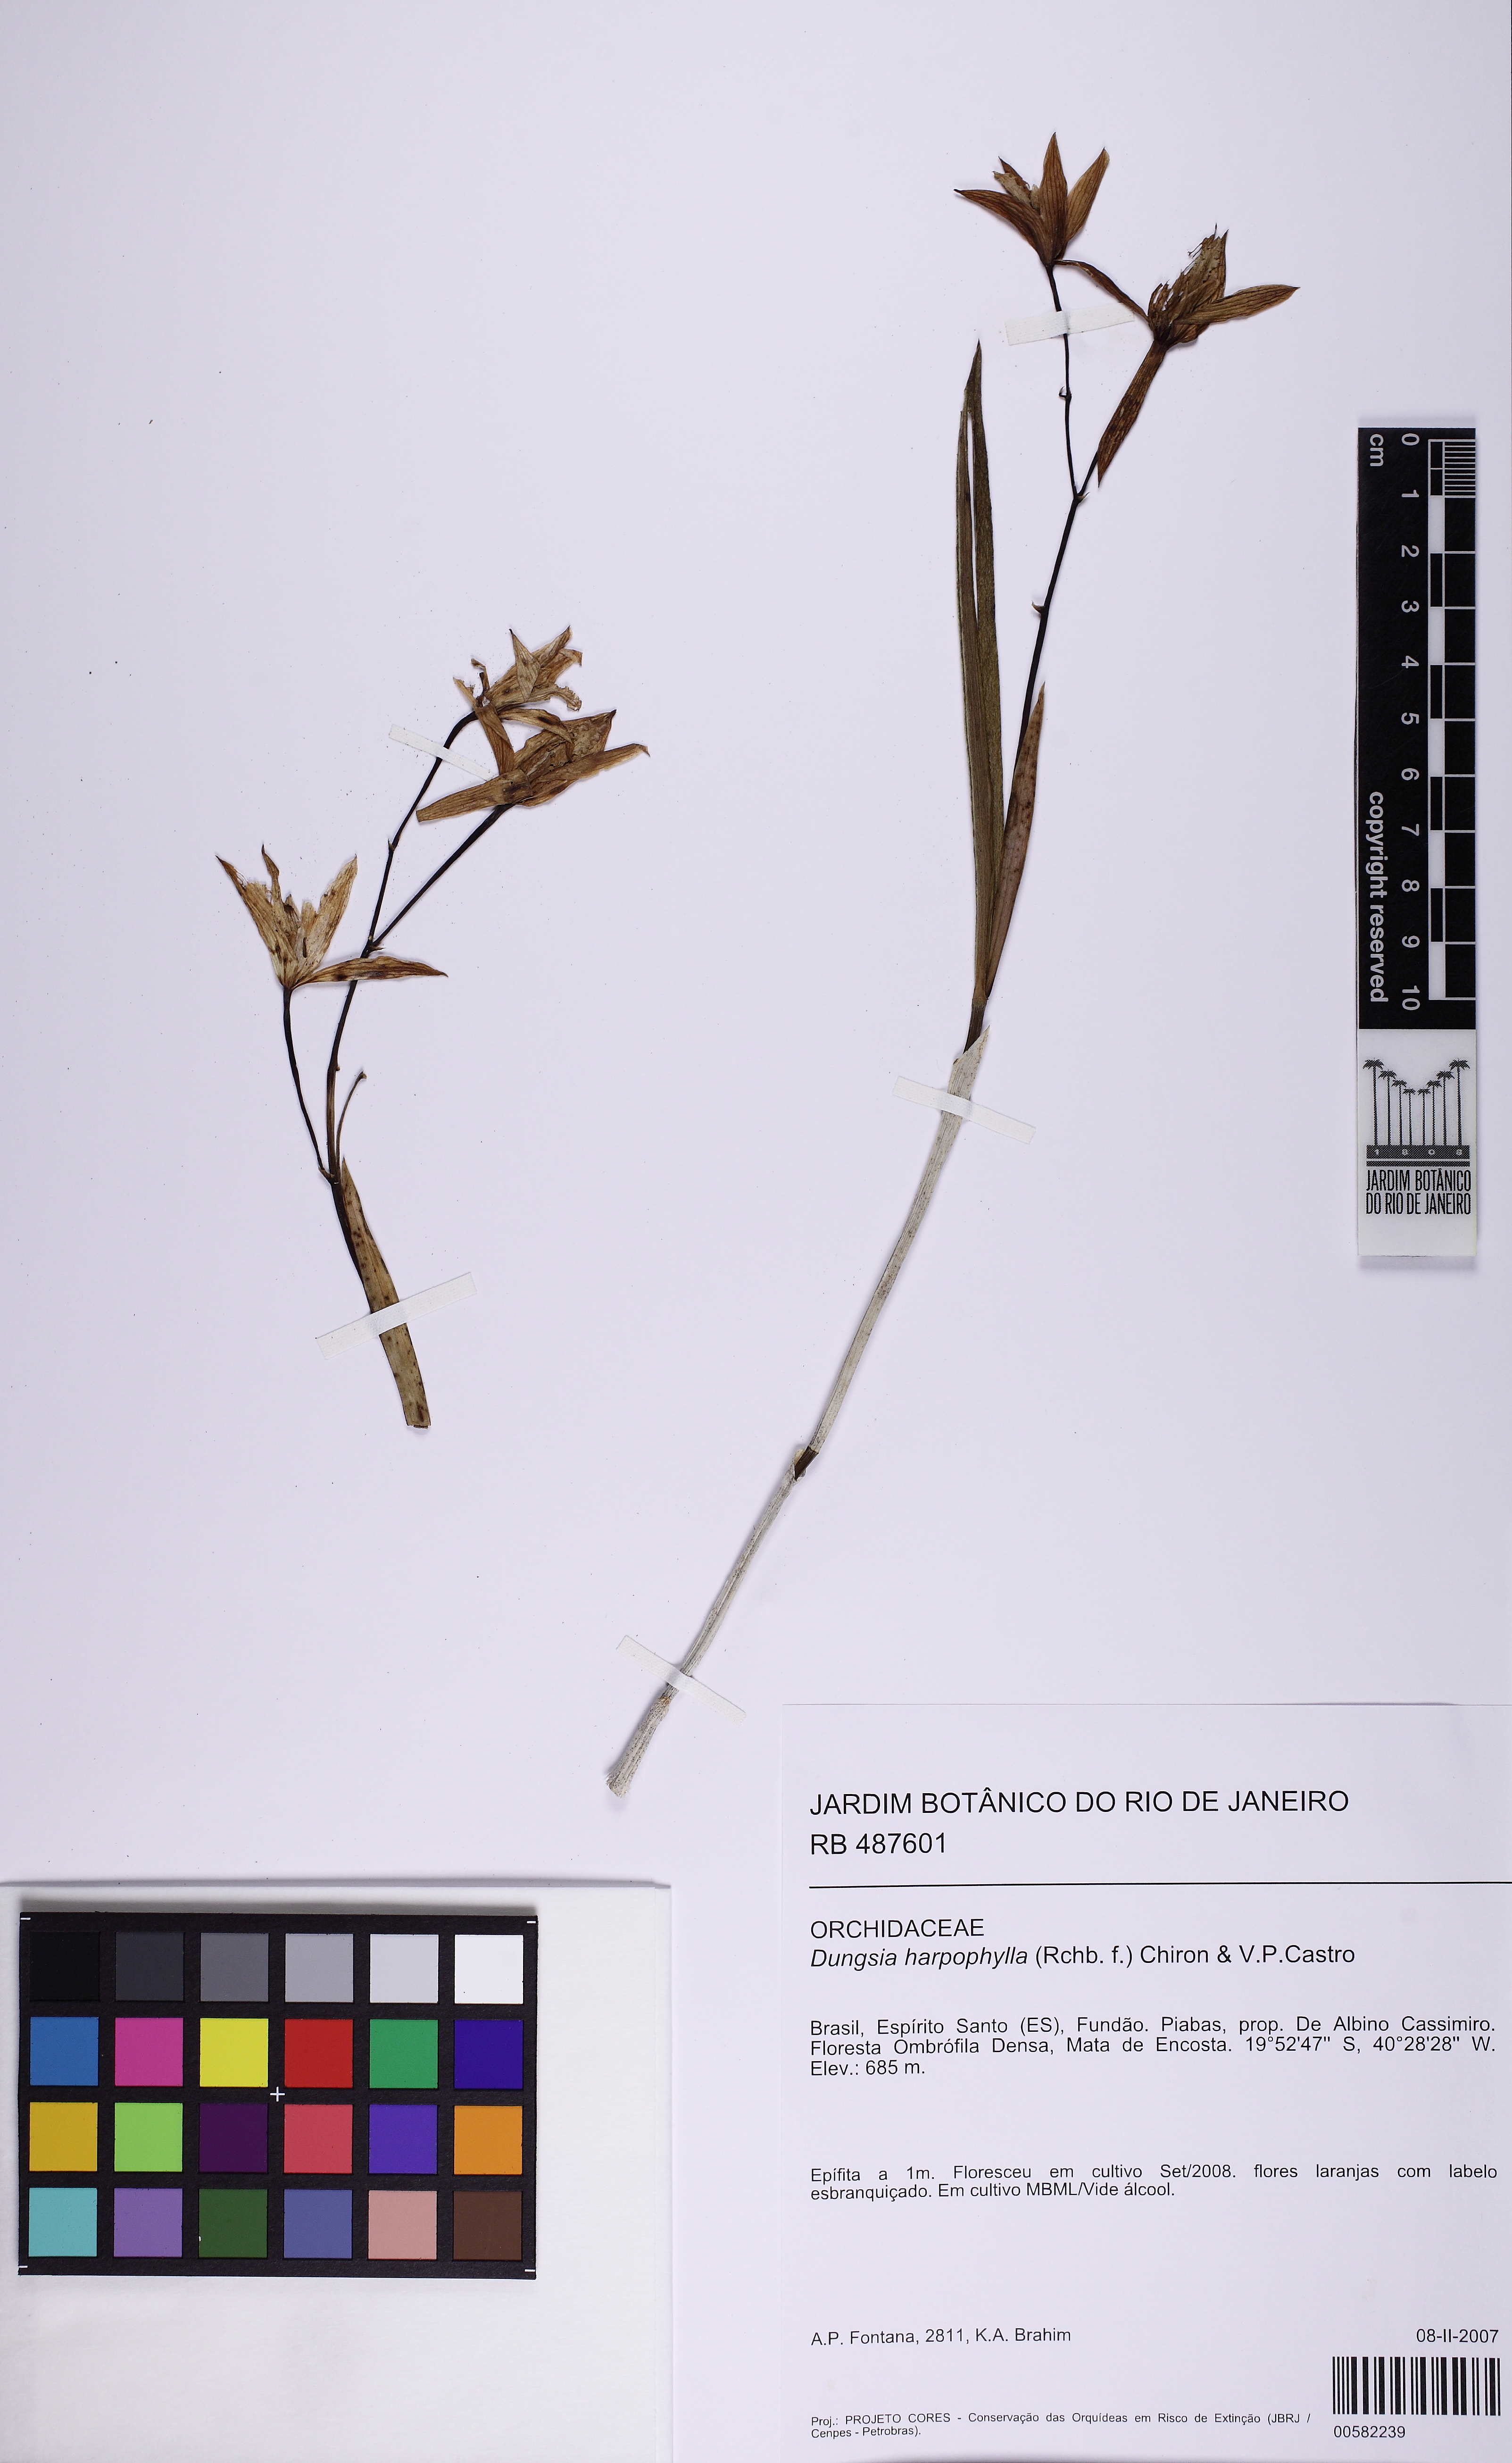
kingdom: Plantae
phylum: Tracheophyta
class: Liliopsida
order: Asparagales
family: Orchidaceae
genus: Cattleya
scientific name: Cattleya harpophylla
